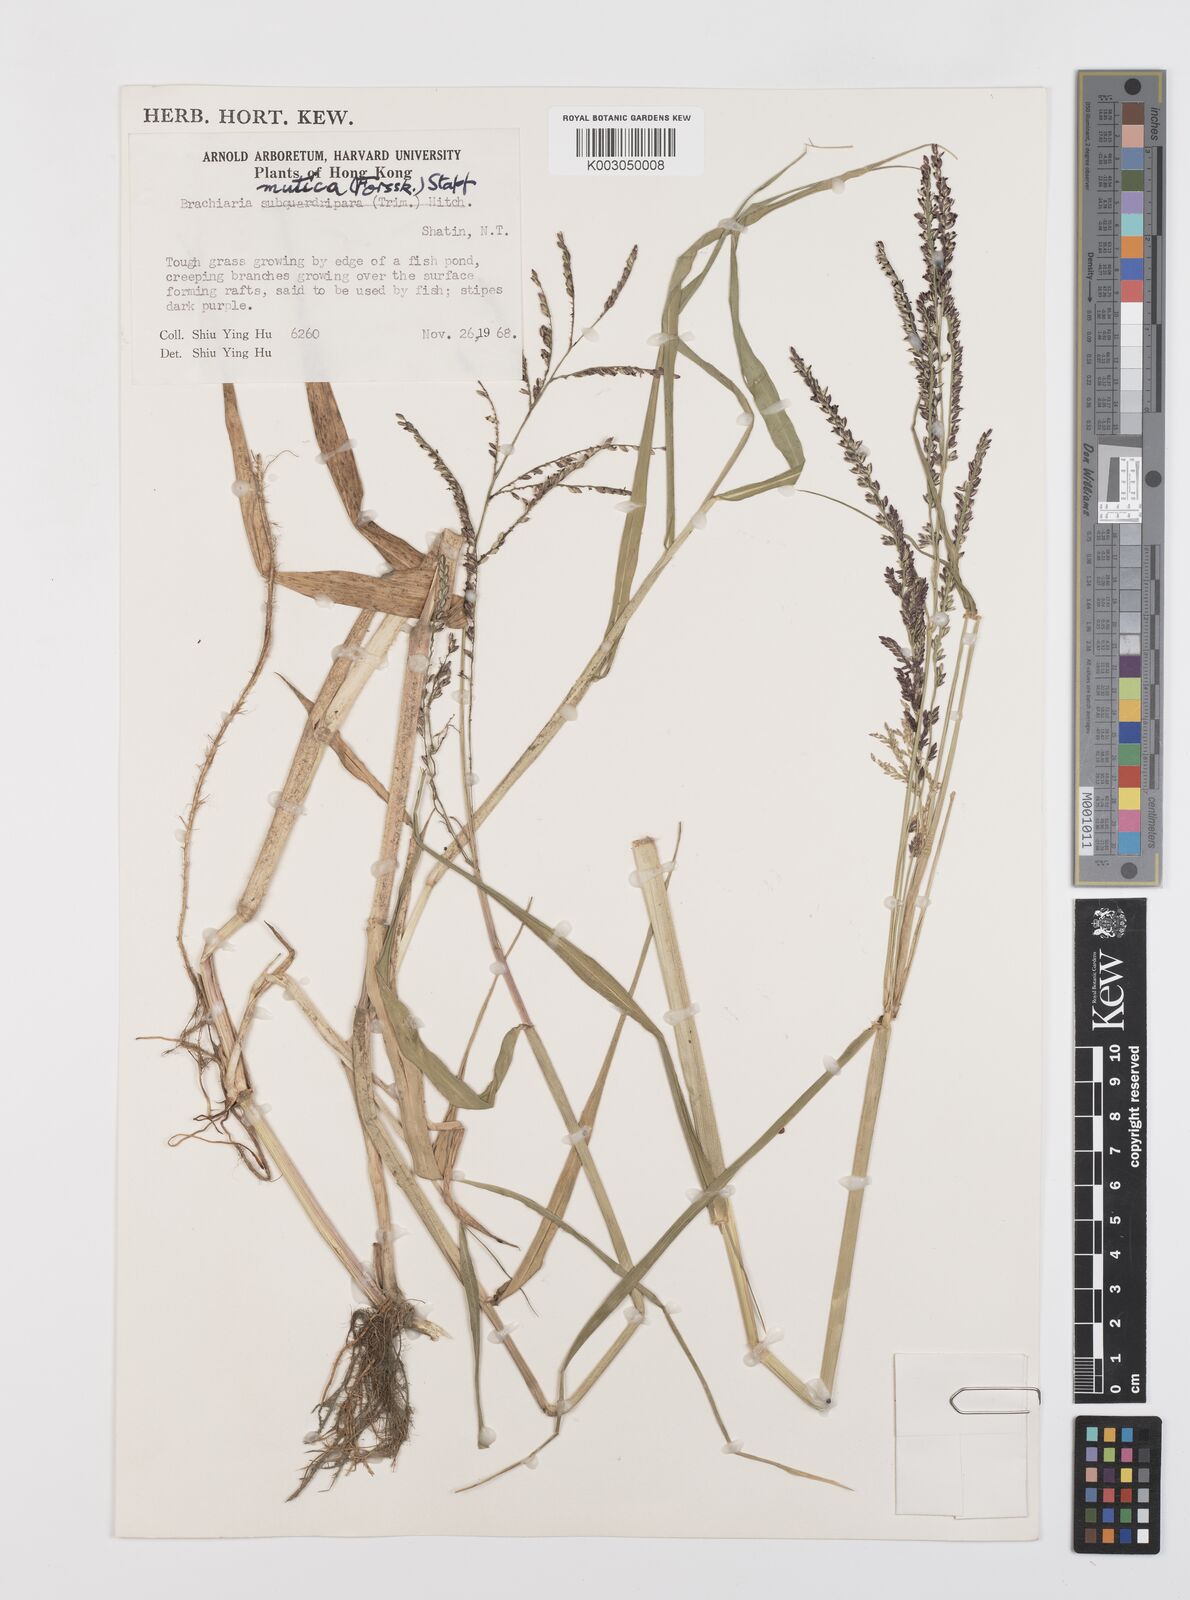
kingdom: Plantae
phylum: Tracheophyta
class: Liliopsida
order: Poales
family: Poaceae
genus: Urochloa
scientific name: Urochloa mutica
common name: Para grass
